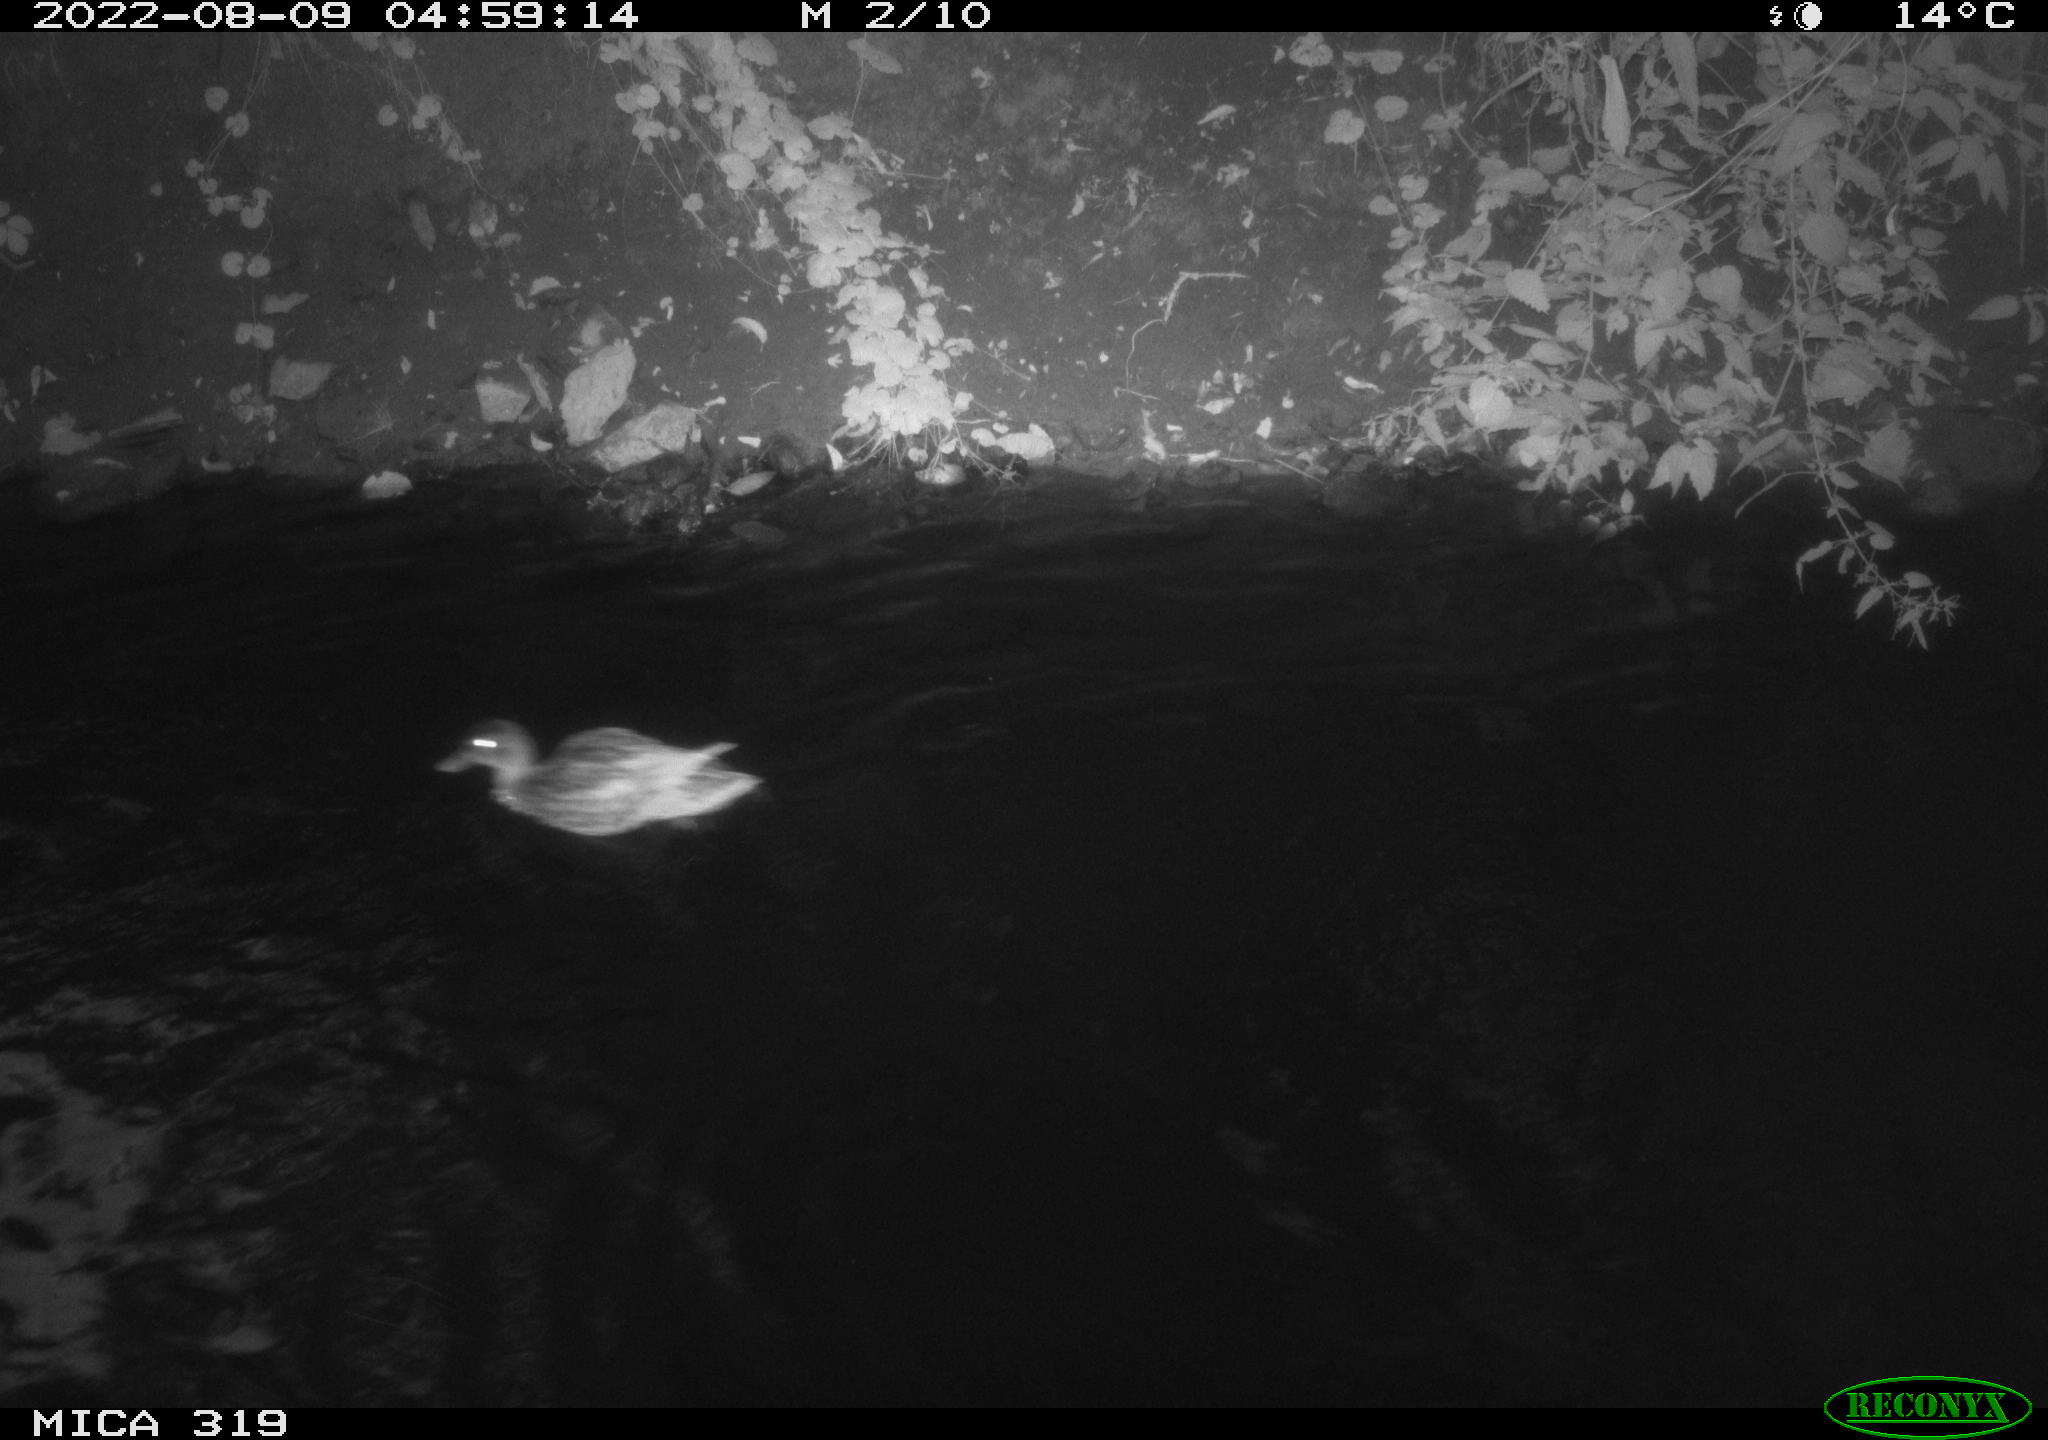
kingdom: Animalia
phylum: Chordata
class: Aves
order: Anseriformes
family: Anatidae
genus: Anas
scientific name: Anas
